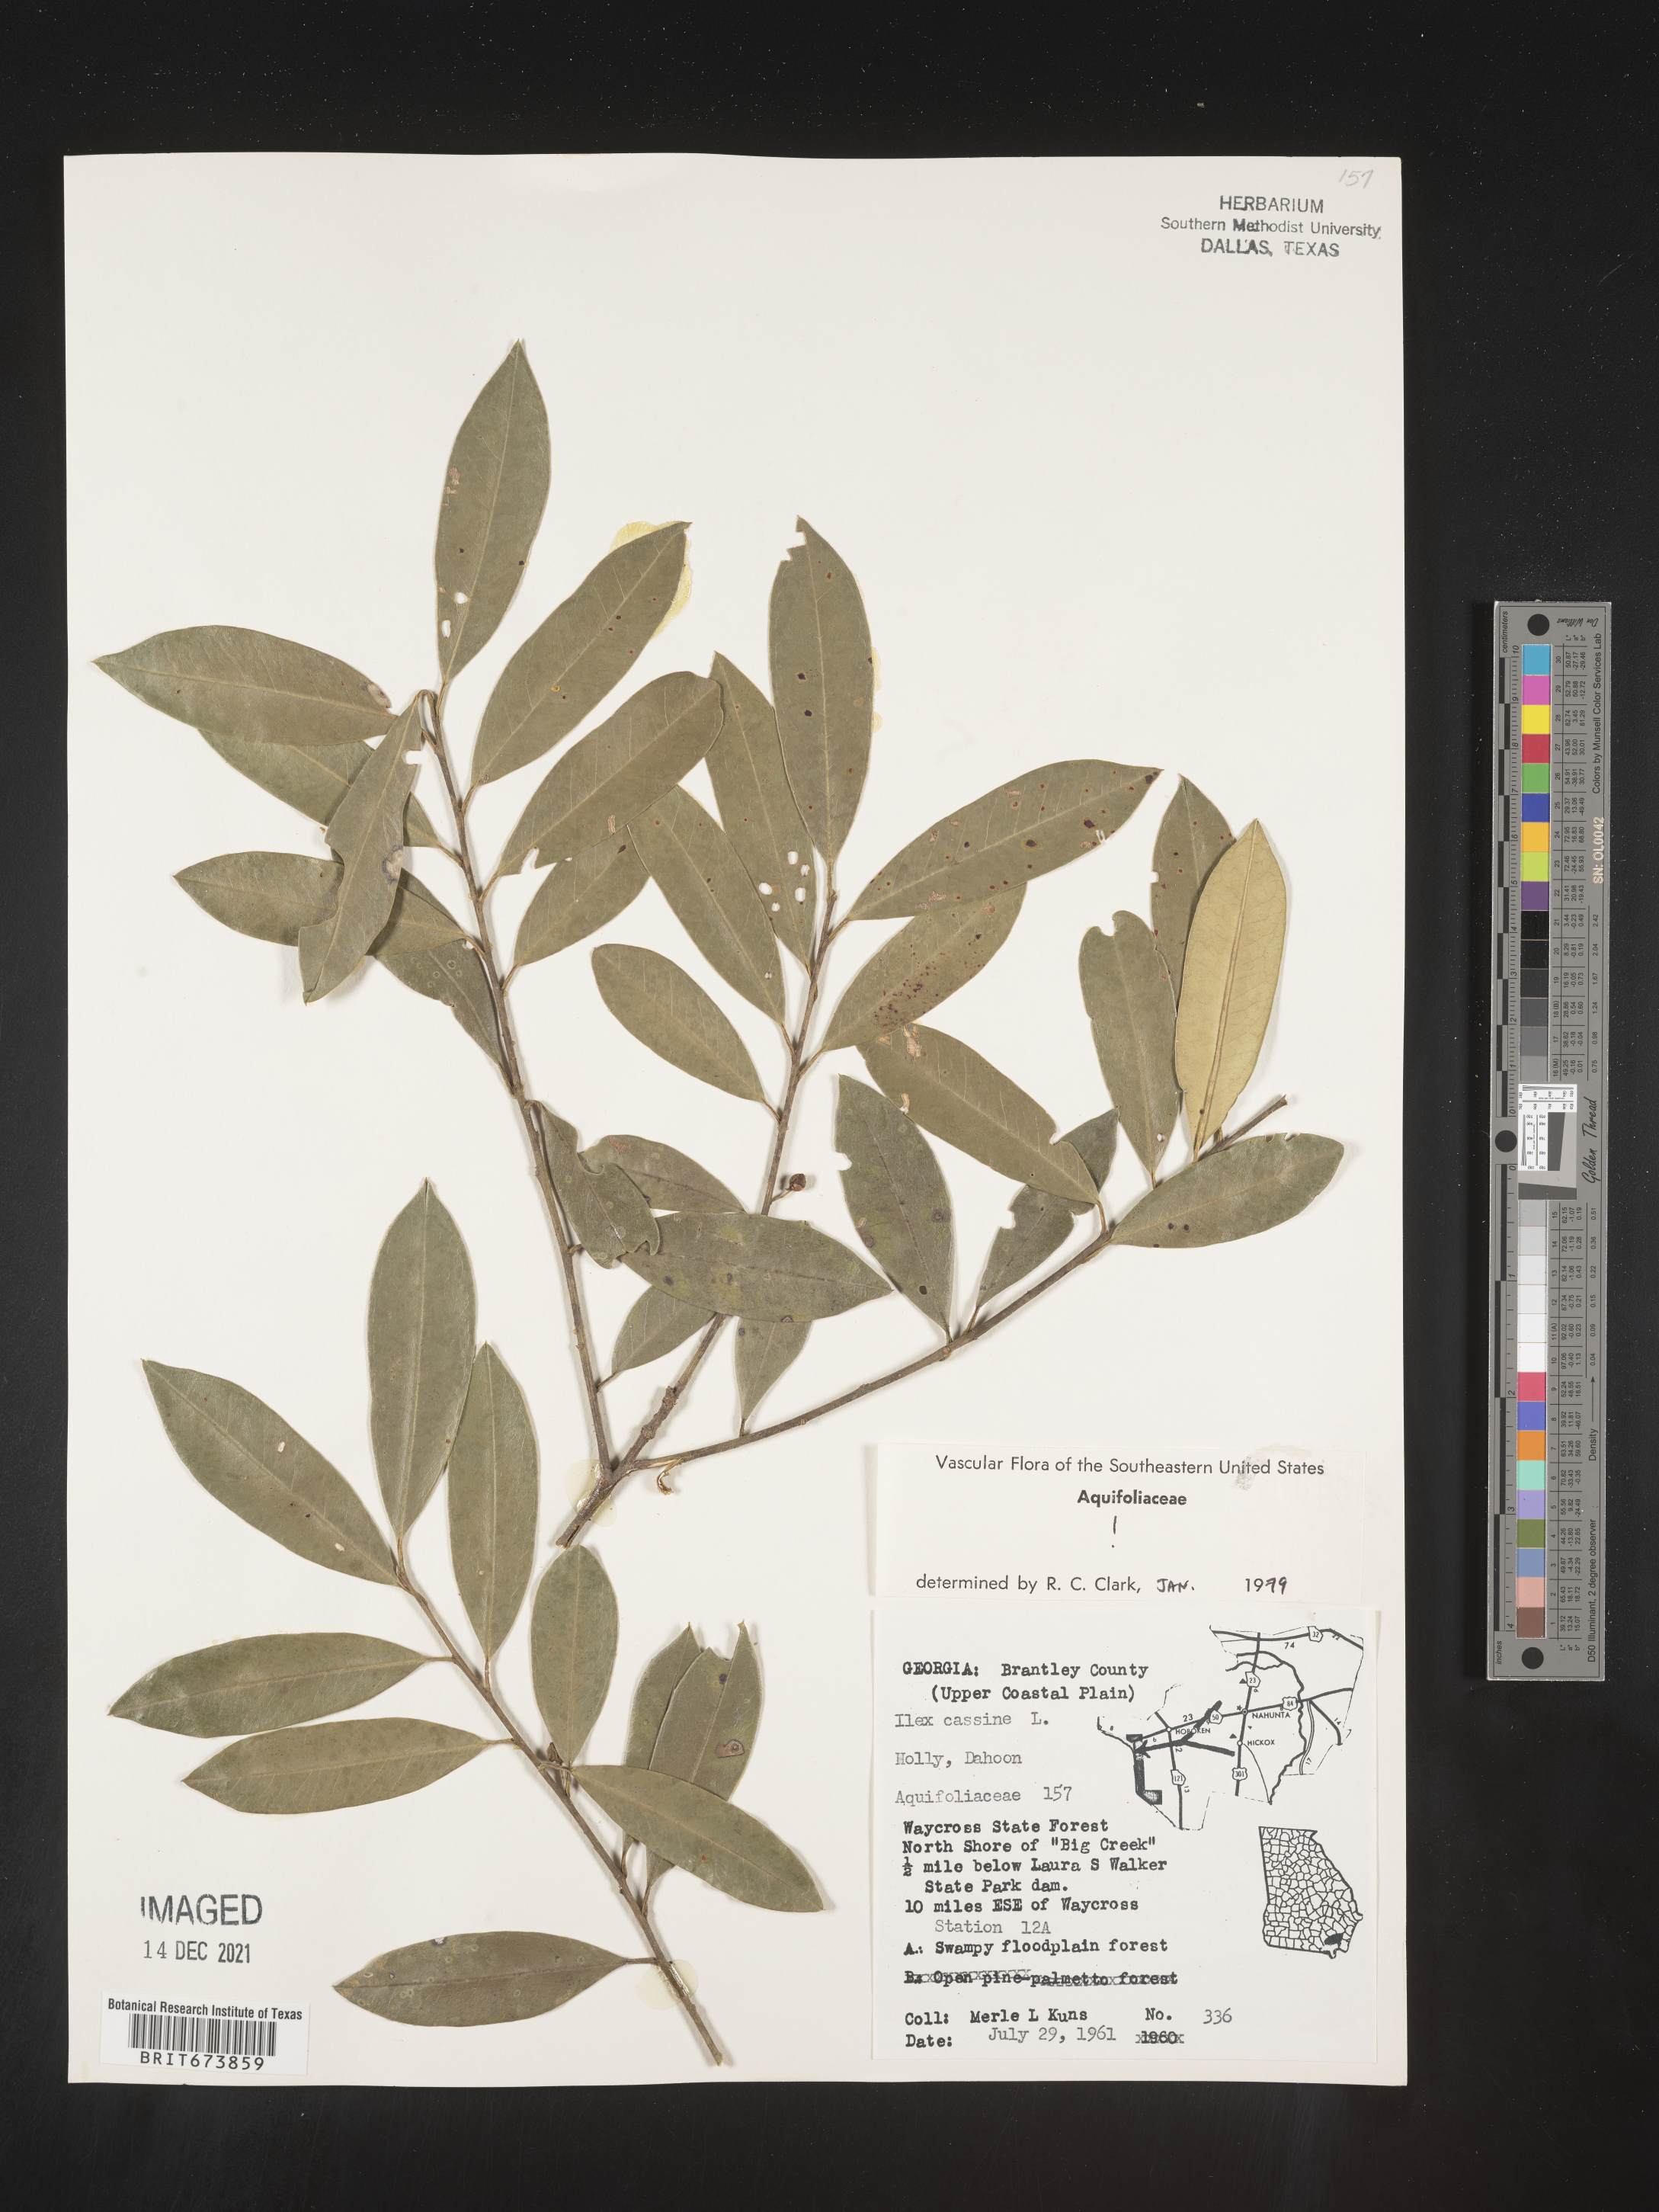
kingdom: Plantae
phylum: Tracheophyta
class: Magnoliopsida
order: Aquifoliales
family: Aquifoliaceae
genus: Ilex
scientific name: Ilex cassine
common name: Dahoon
